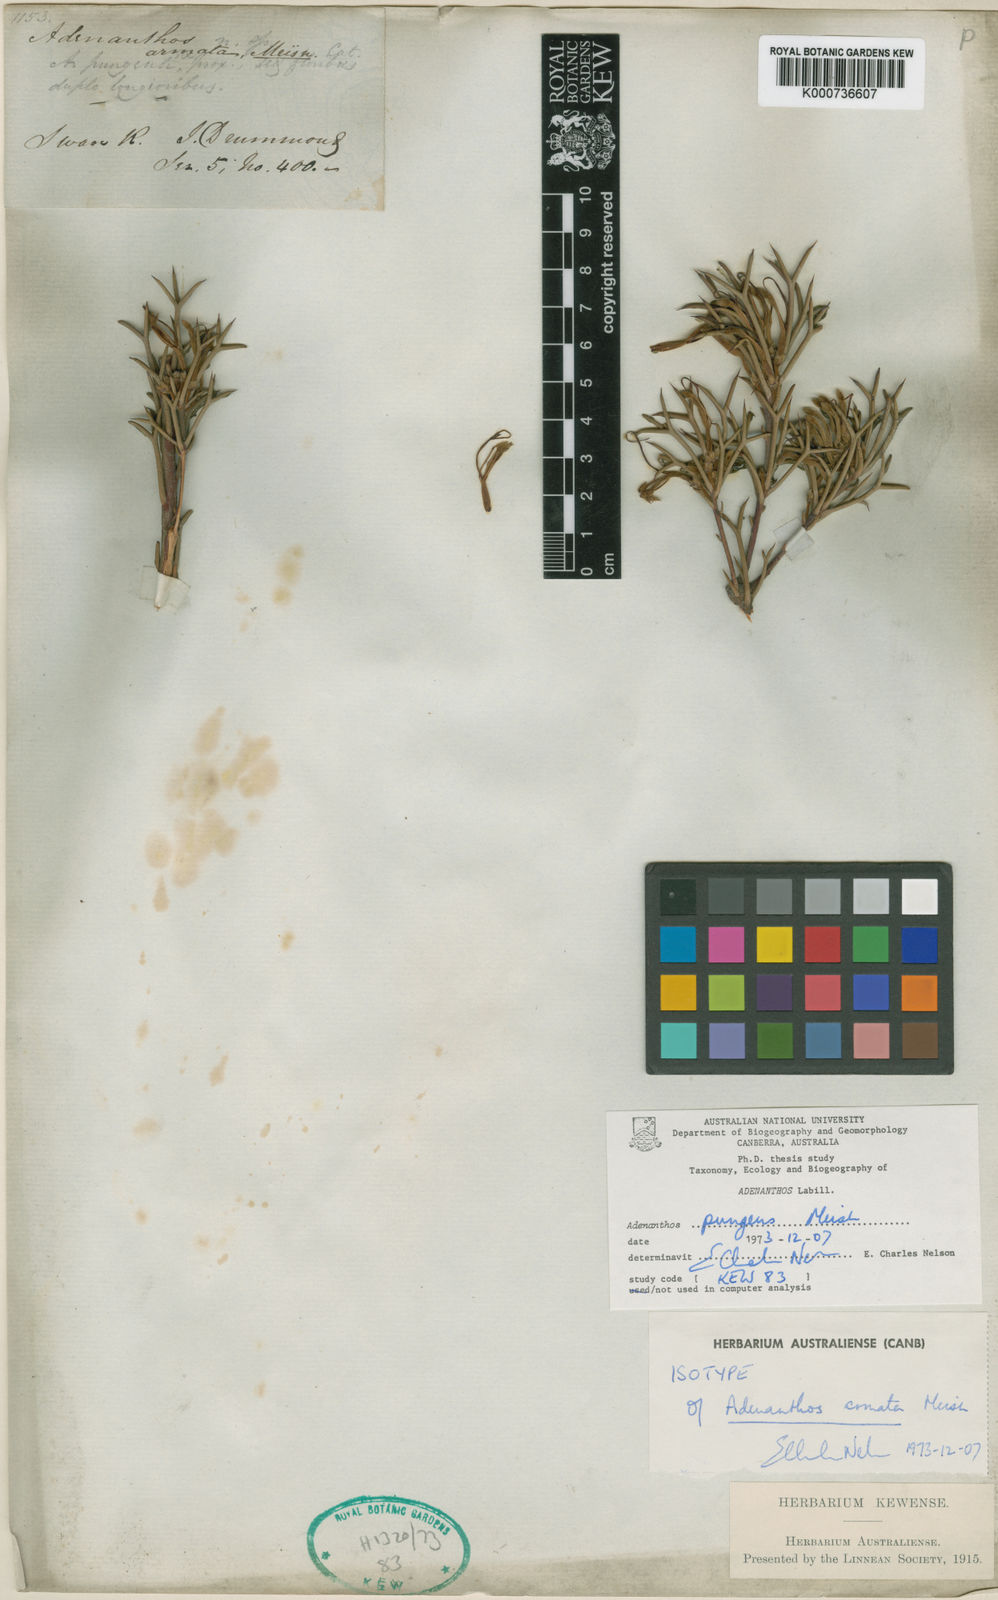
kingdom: Plantae
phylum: Tracheophyta
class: Magnoliopsida
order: Proteales
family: Proteaceae
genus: Adenanthos
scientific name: Adenanthos pungens
